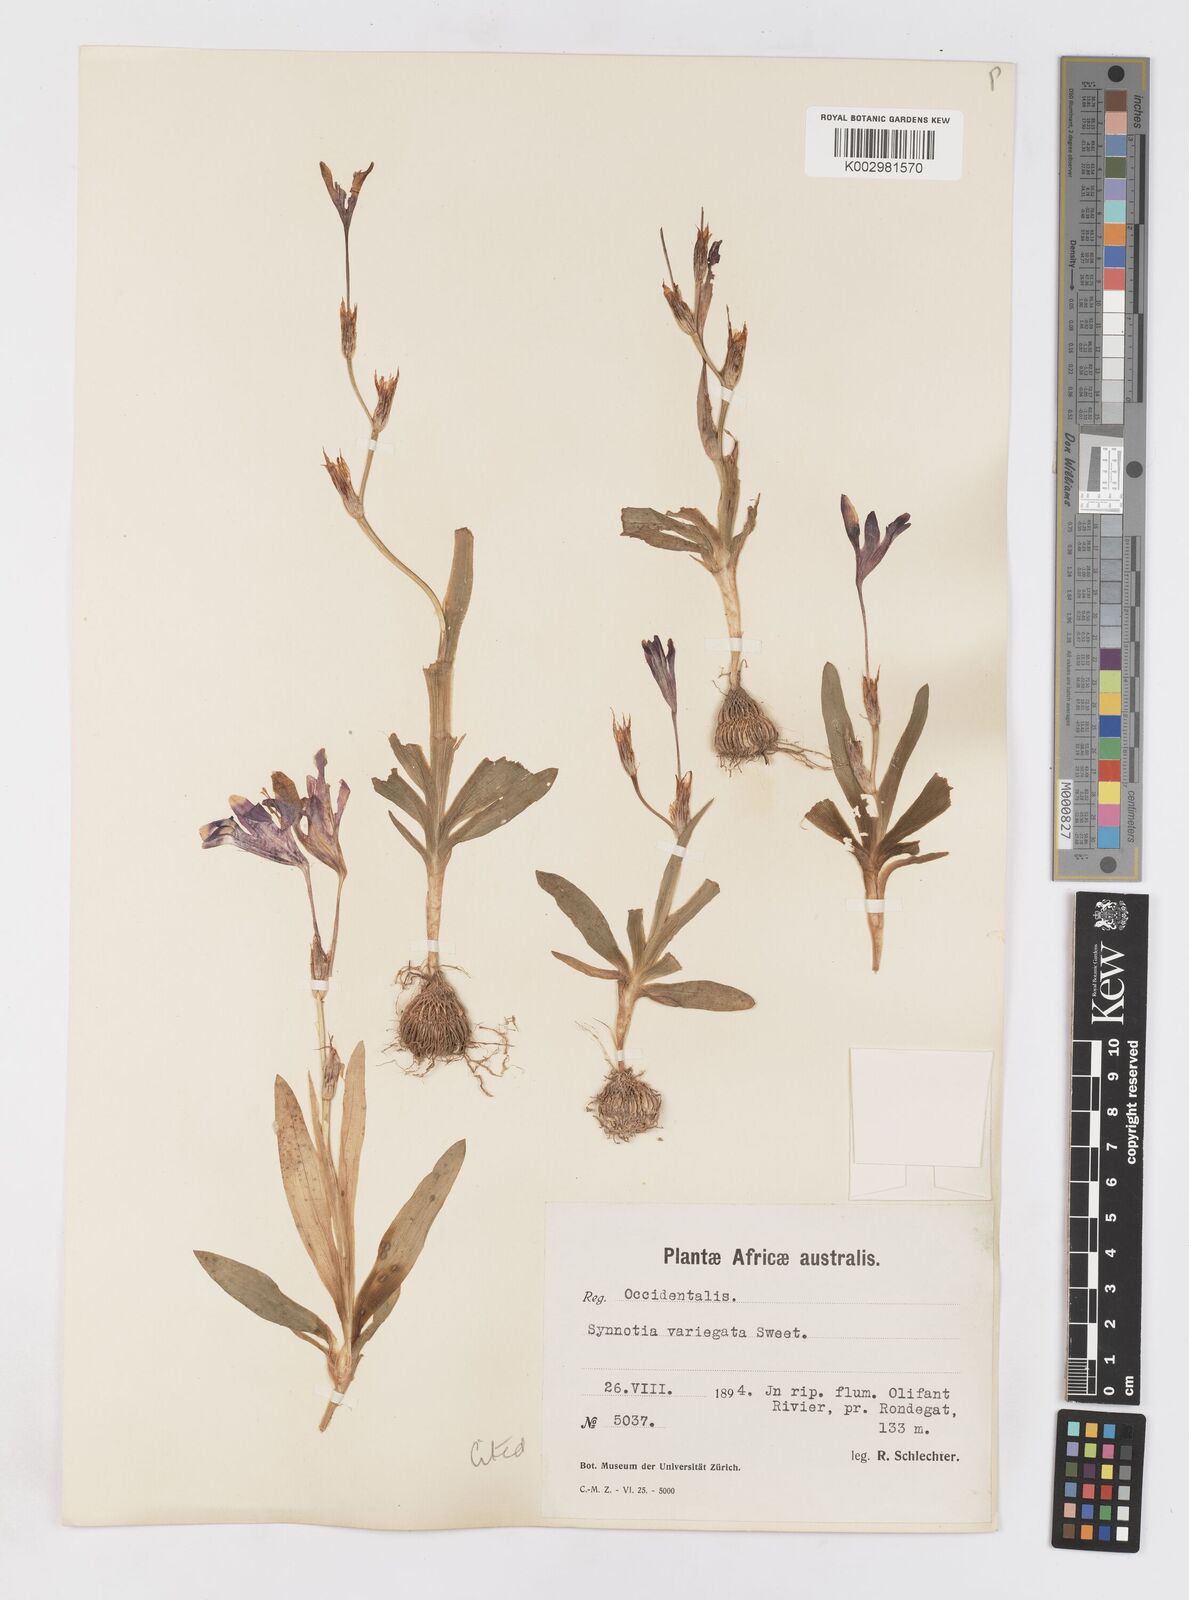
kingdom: Plantae
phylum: Tracheophyta
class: Liliopsida
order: Asparagales
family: Iridaceae
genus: Sparaxis
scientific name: Sparaxis variegata
